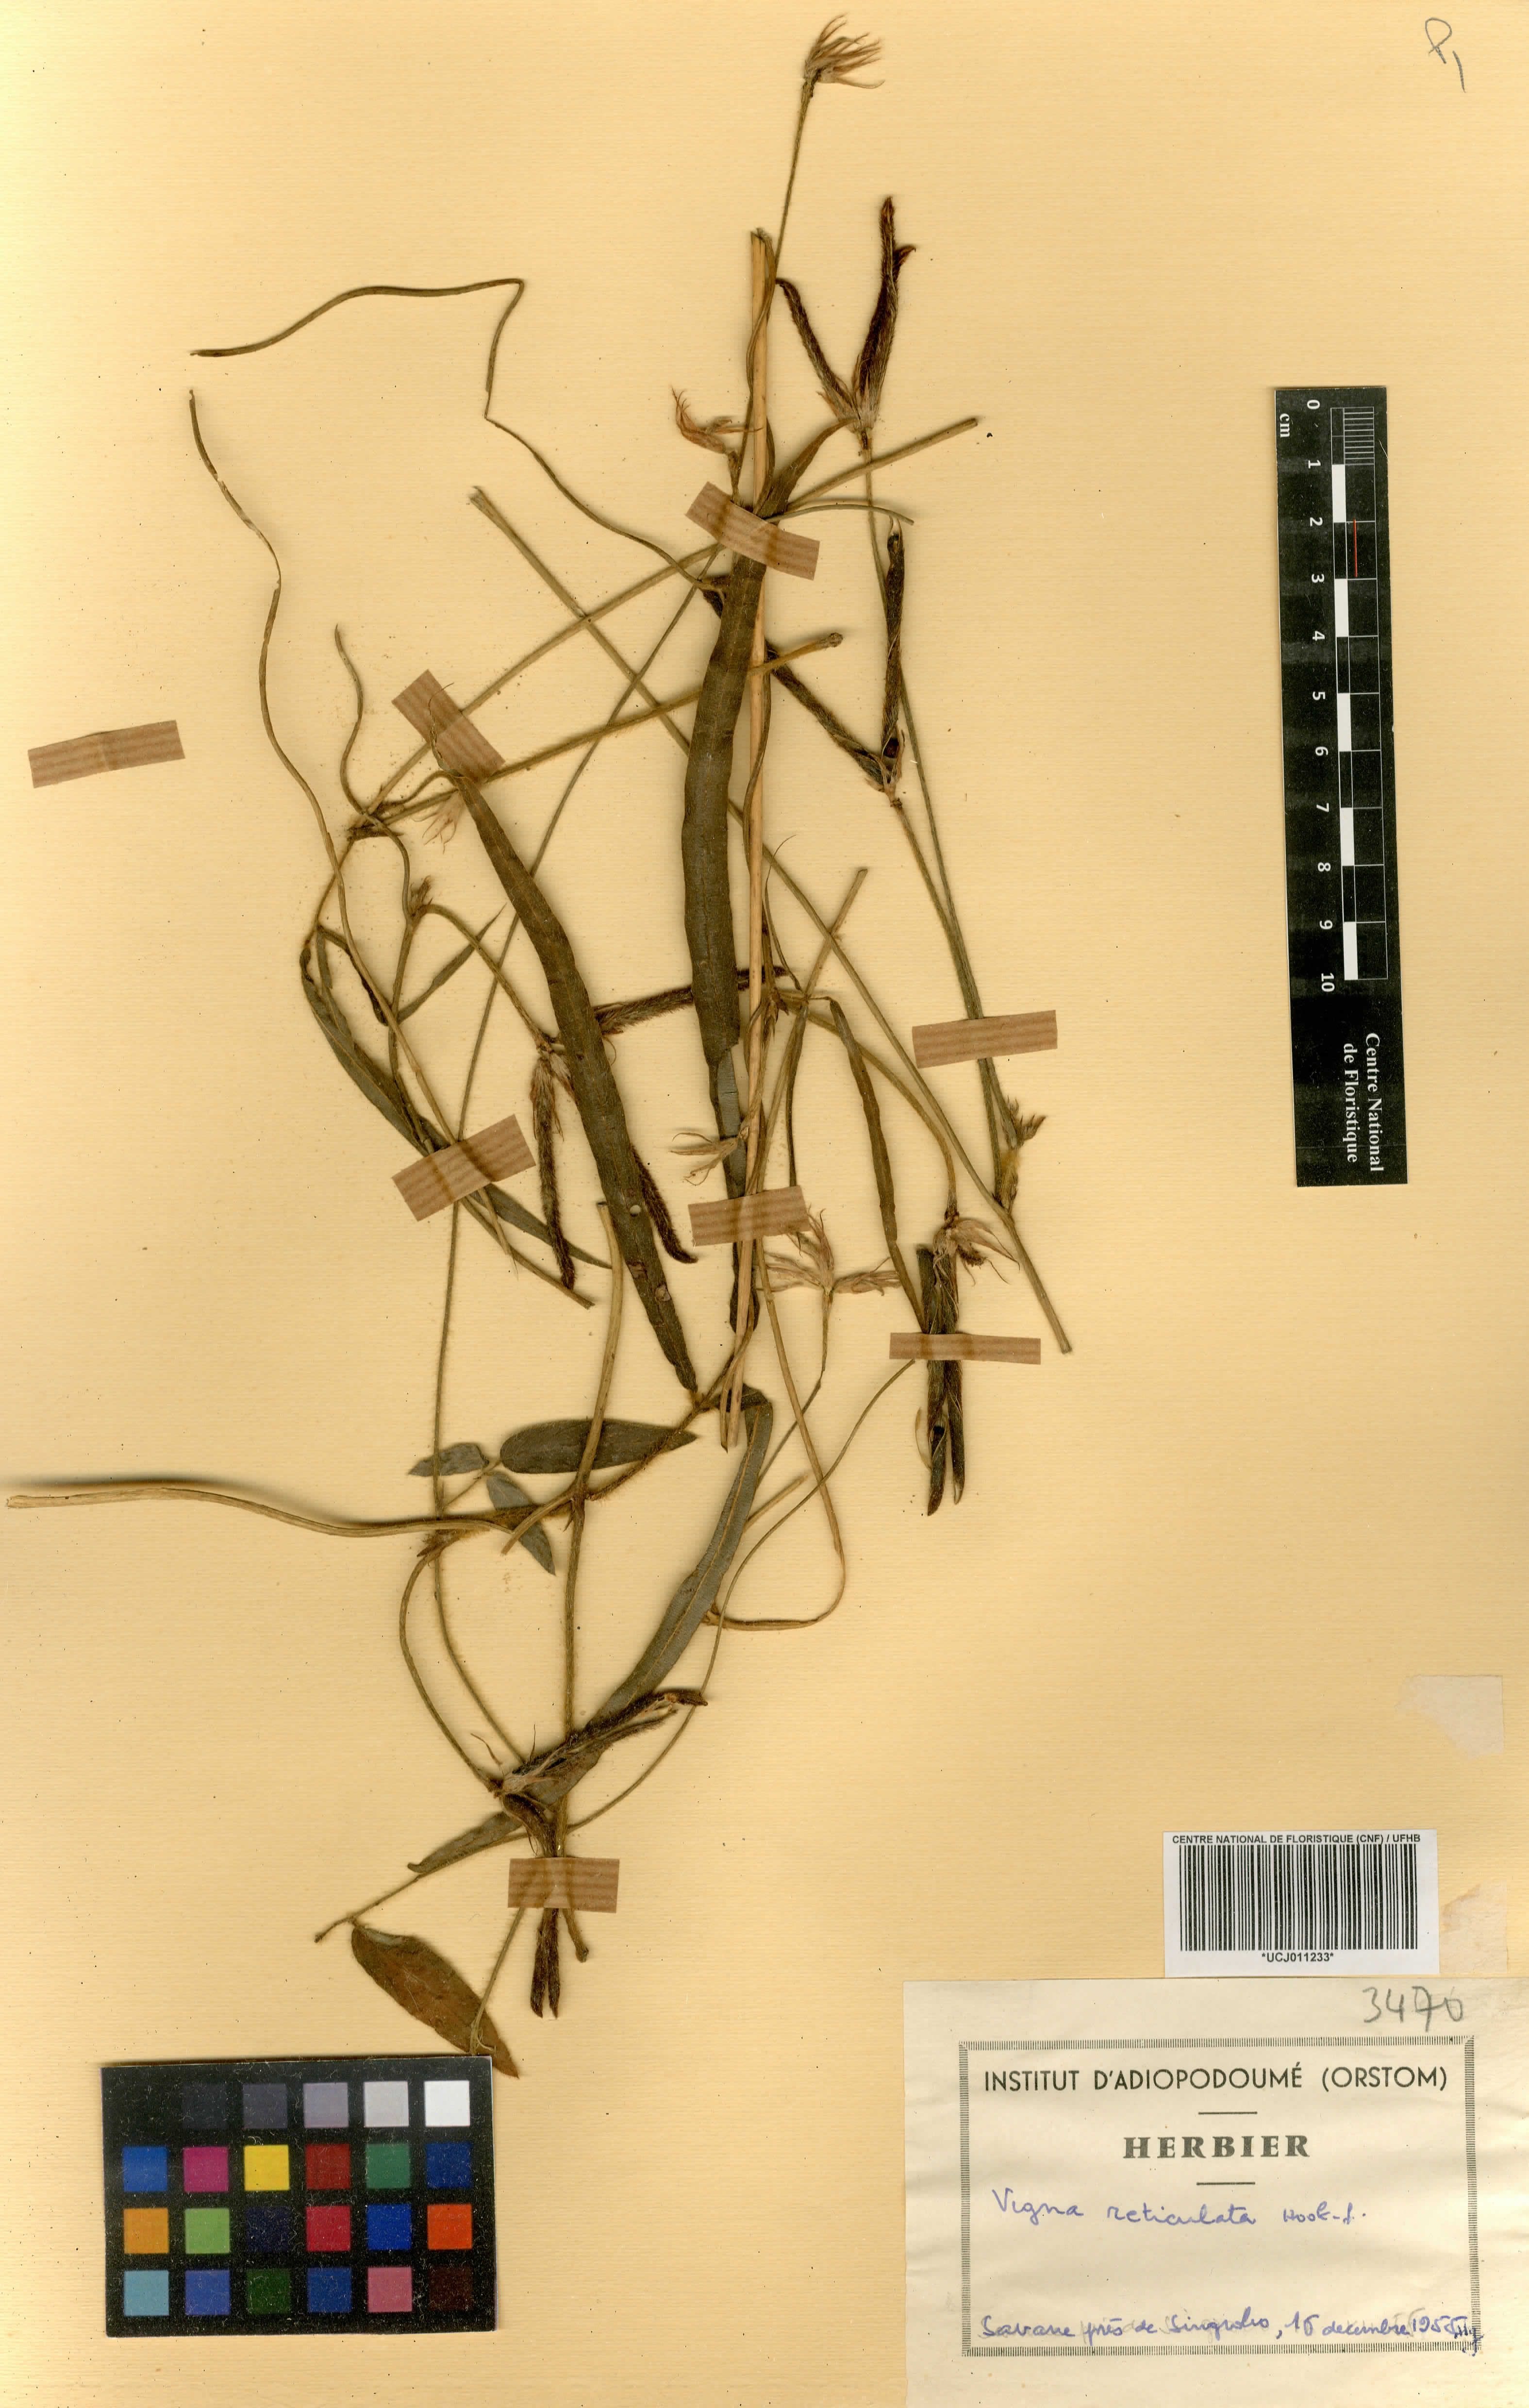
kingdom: Plantae
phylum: Tracheophyta
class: Magnoliopsida
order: Fabales
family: Fabaceae
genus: Vigna
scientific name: Vigna reticulata
